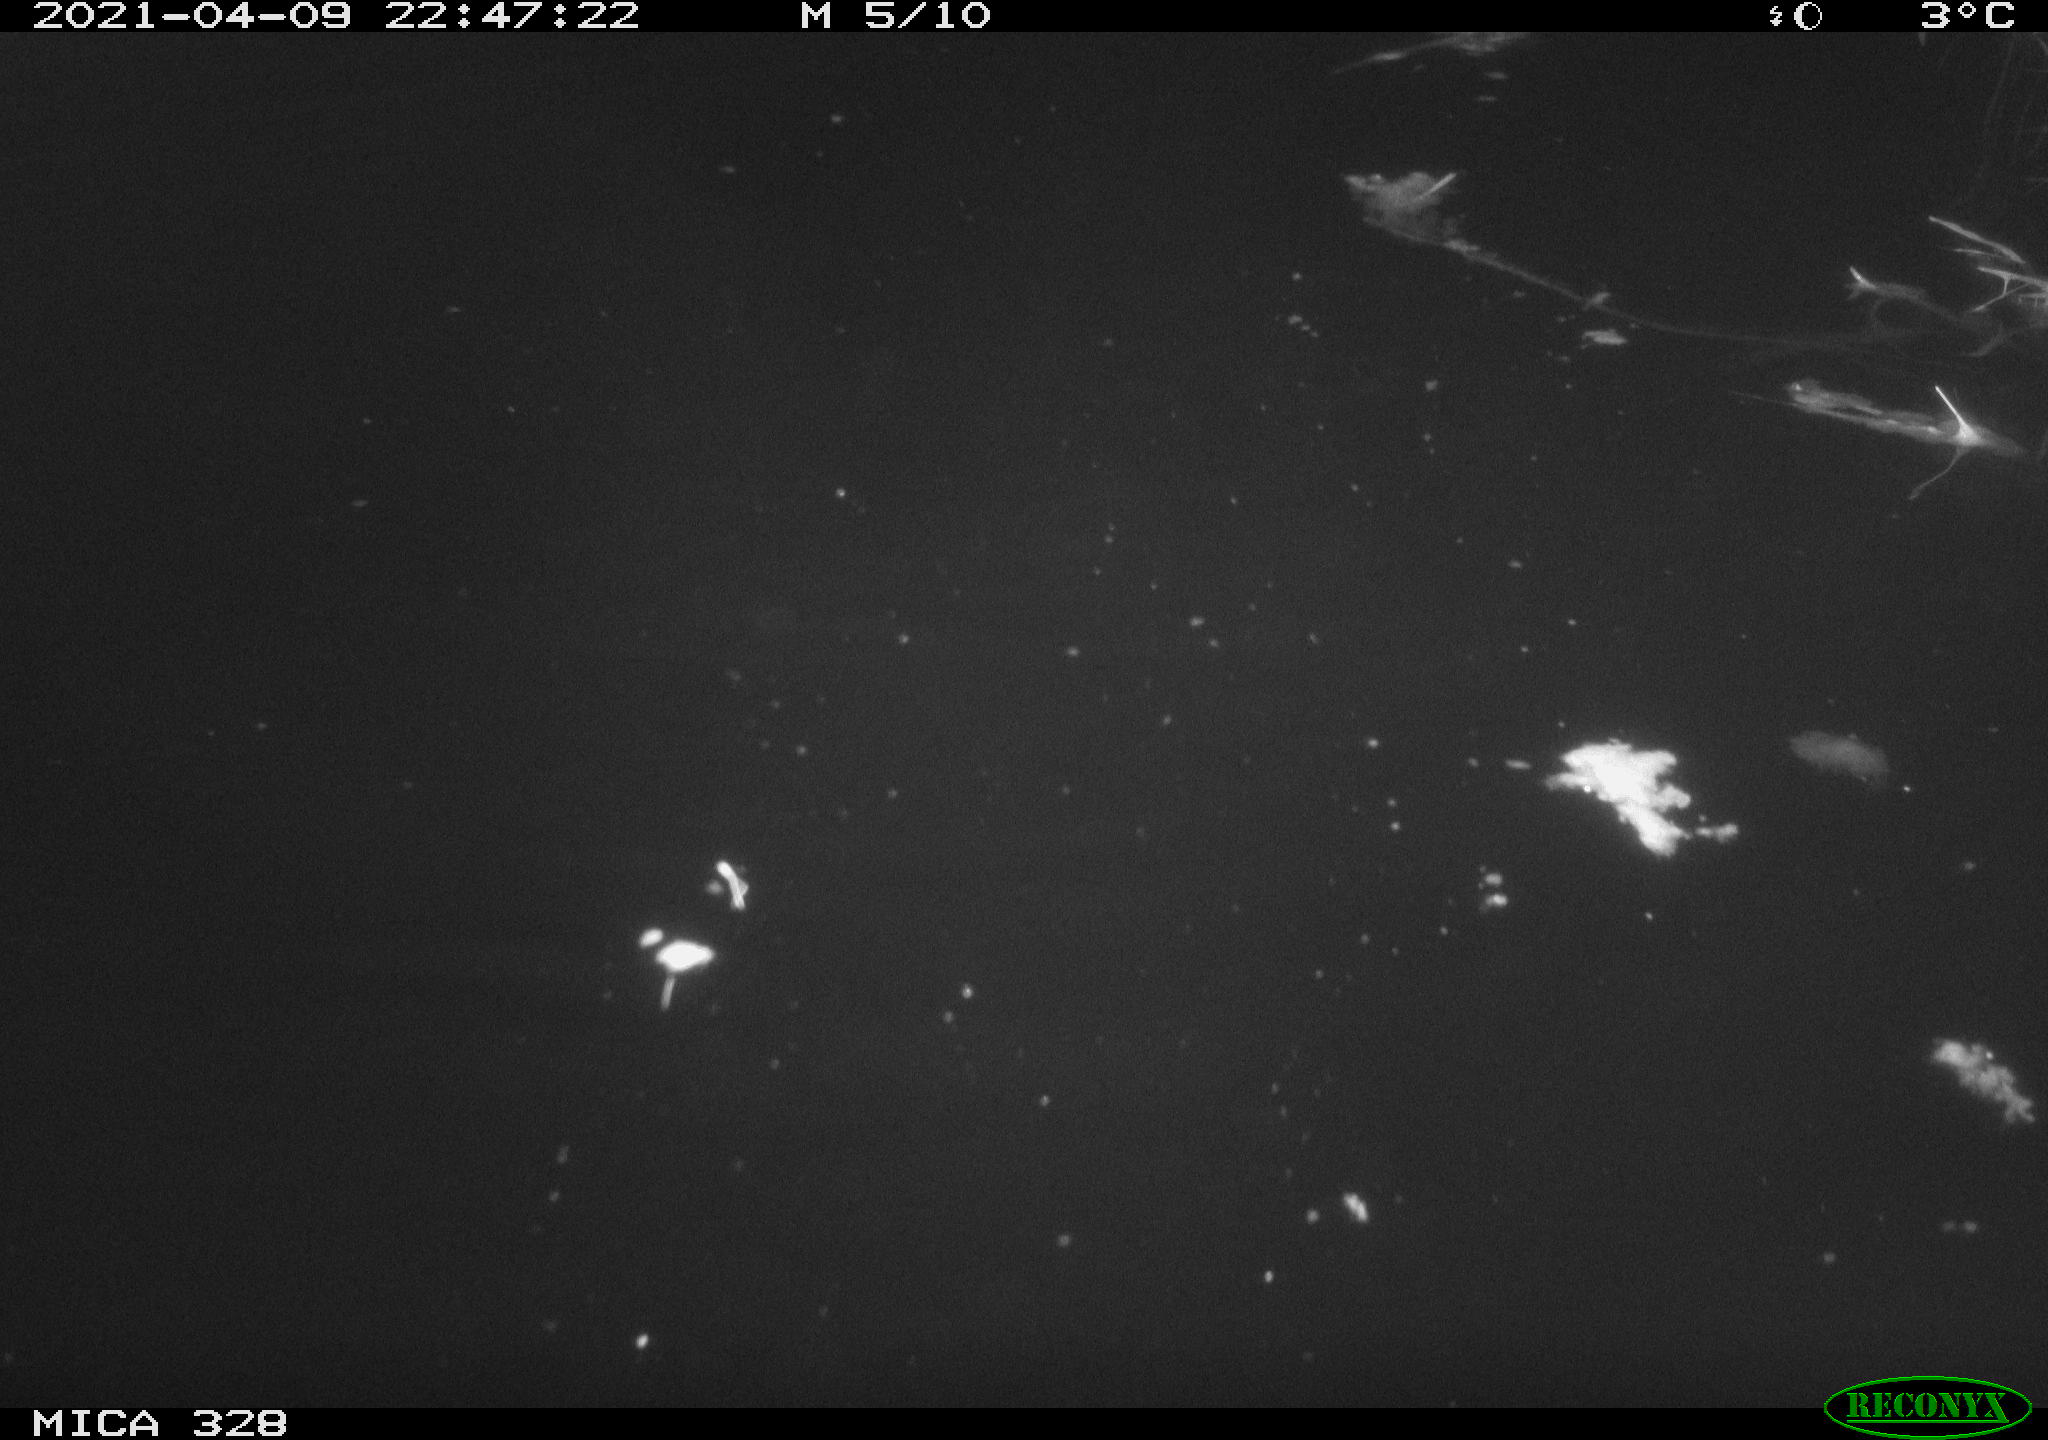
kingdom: Animalia
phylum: Chordata
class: Mammalia
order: Rodentia
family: Cricetidae
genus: Ondatra
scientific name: Ondatra zibethicus
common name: Muskrat
